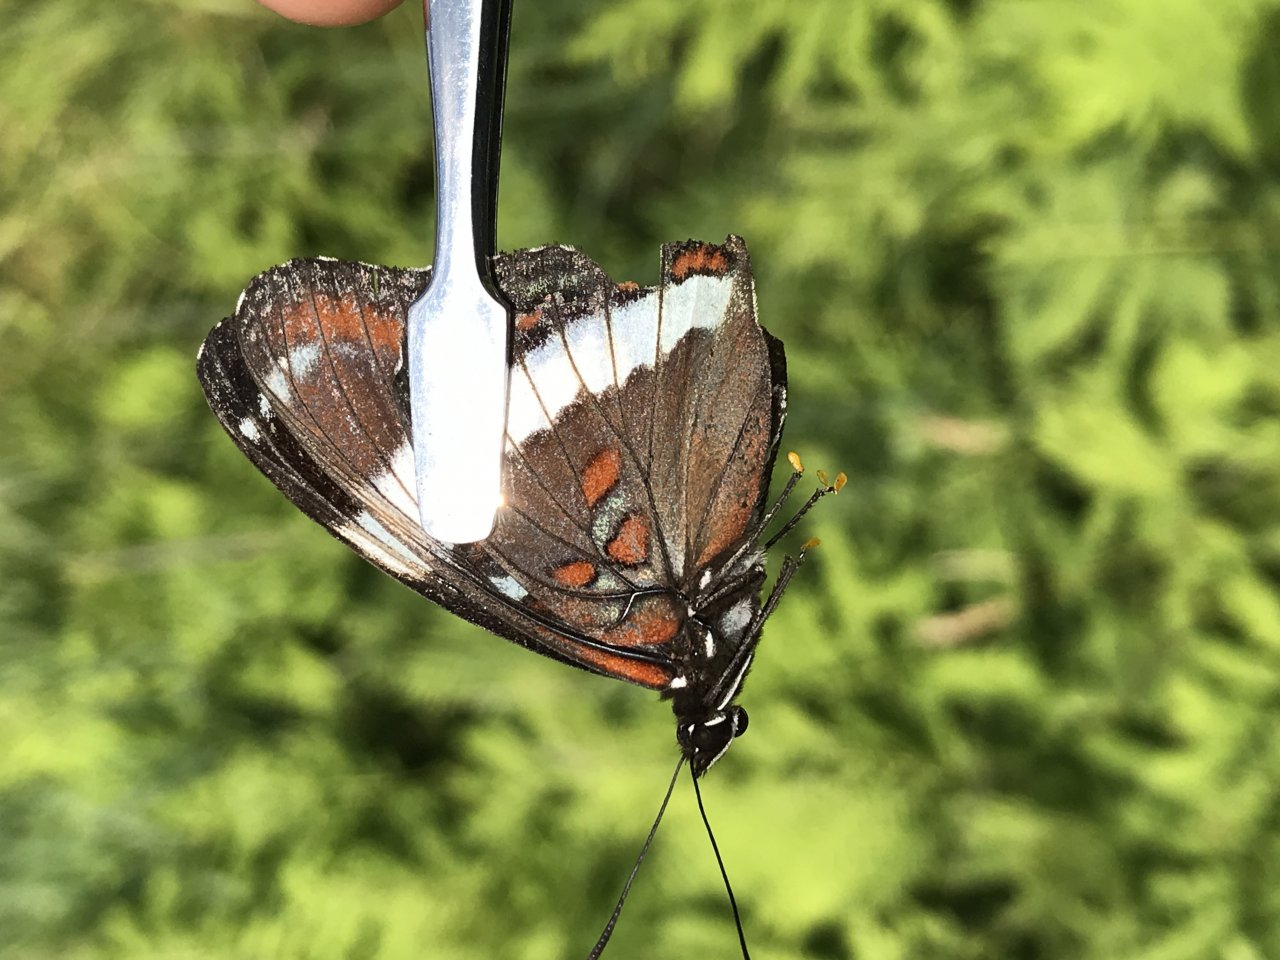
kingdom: Animalia
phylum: Arthropoda
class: Insecta
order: Lepidoptera
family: Nymphalidae
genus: Limenitis
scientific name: Limenitis arthemis
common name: Red-spotted Admiral
